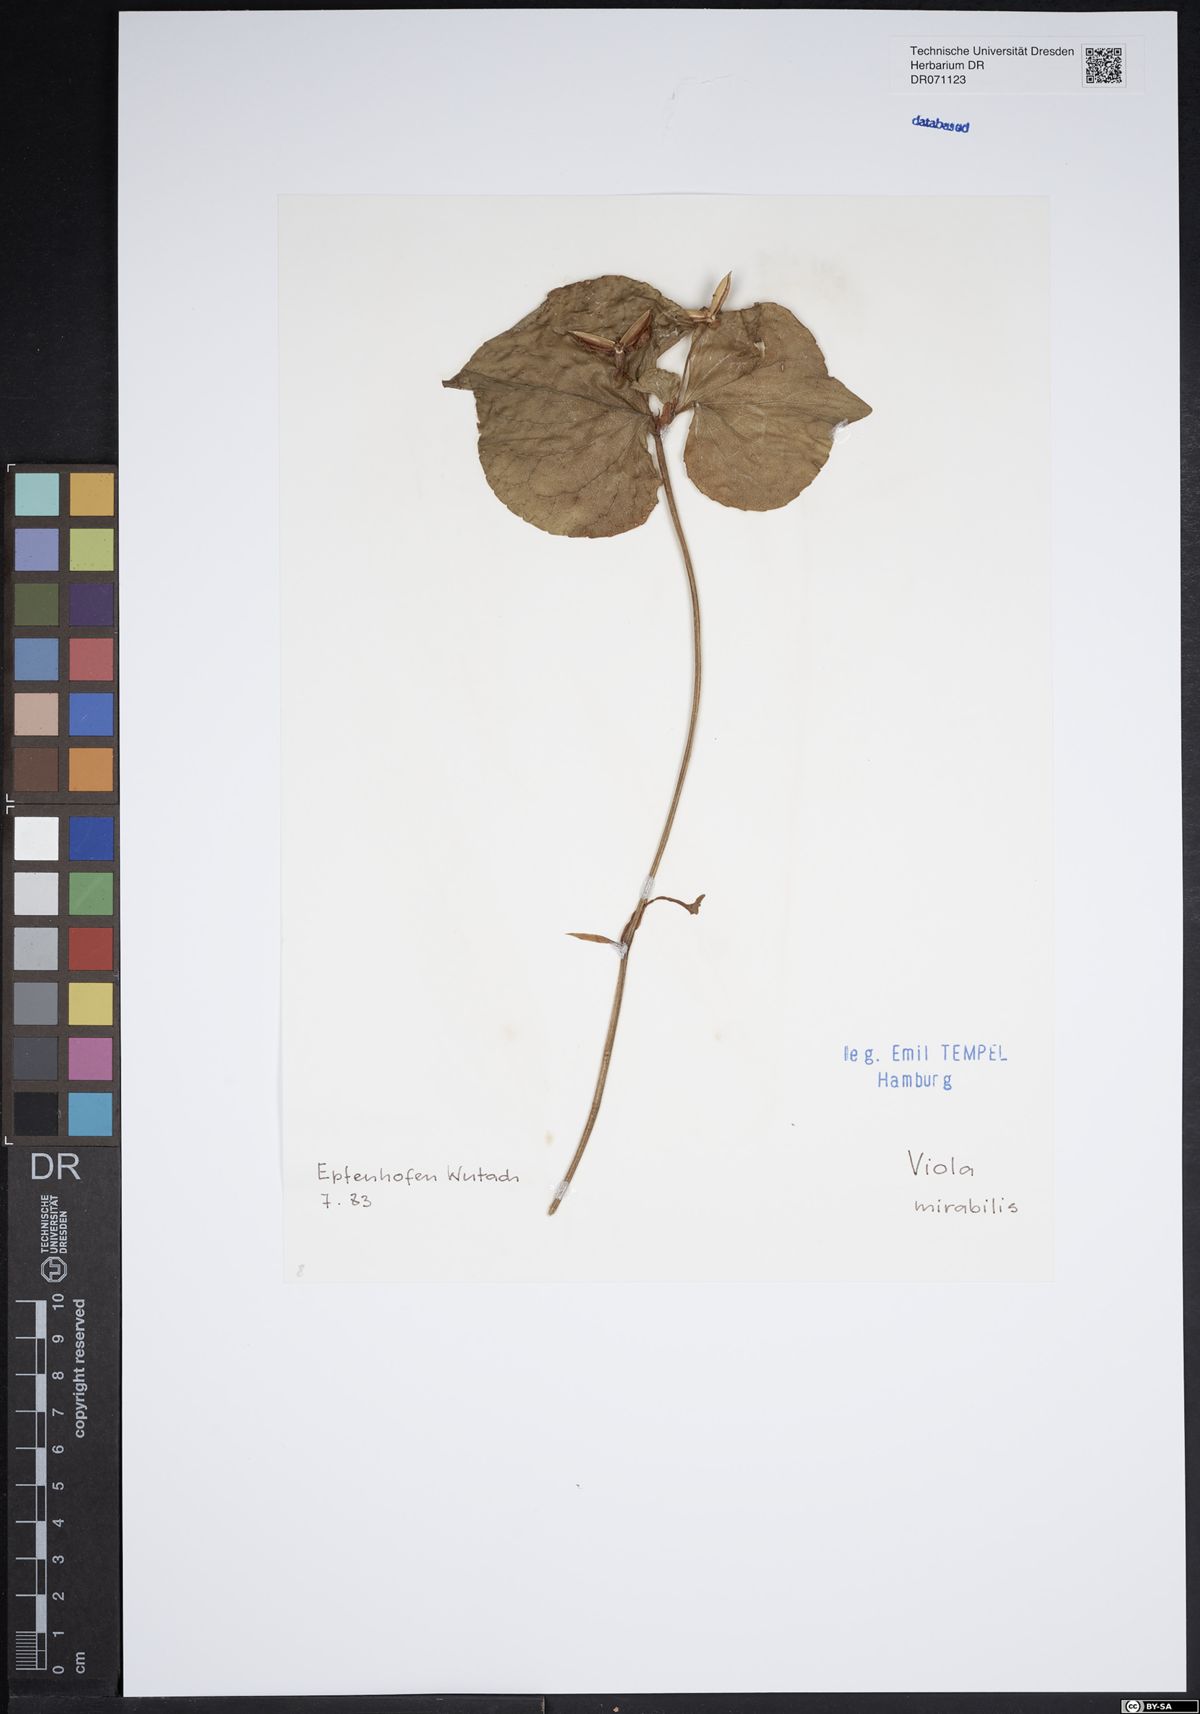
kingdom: Plantae
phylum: Tracheophyta
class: Magnoliopsida
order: Malpighiales
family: Violaceae
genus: Viola
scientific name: Viola mirabilis
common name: Wonder violet
